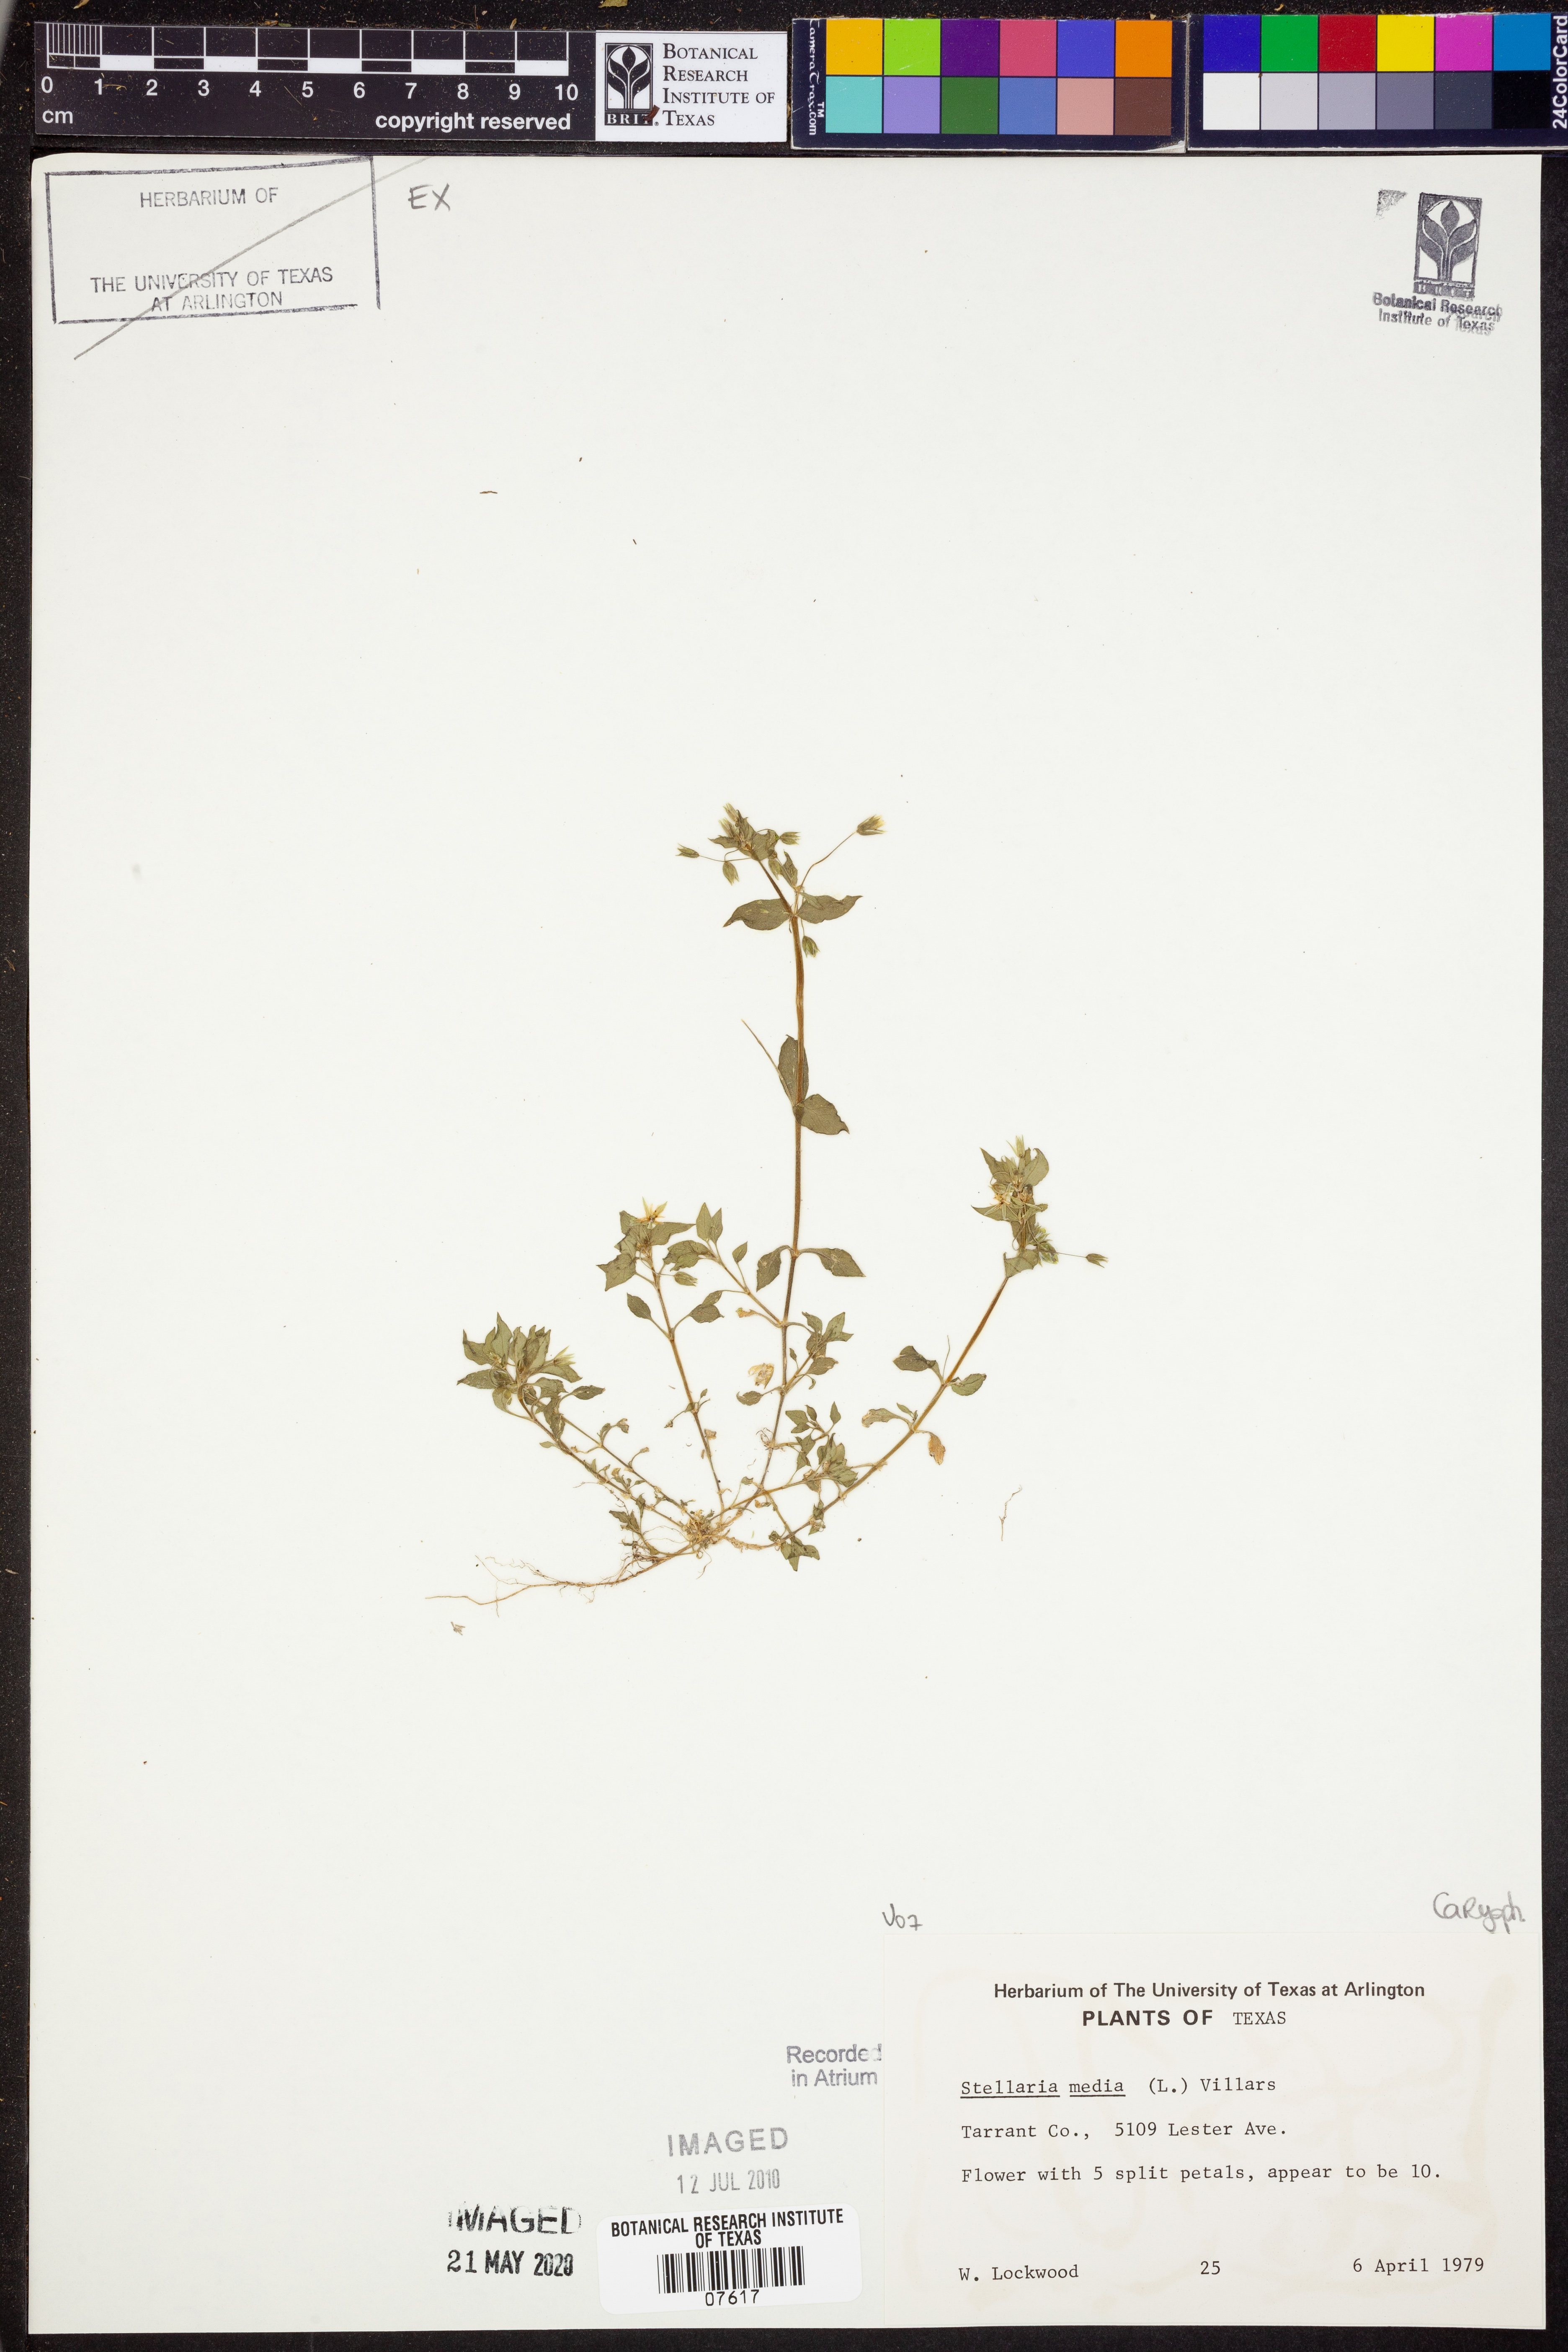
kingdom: Plantae
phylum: Tracheophyta
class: Magnoliopsida
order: Caryophyllales
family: Caryophyllaceae
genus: Stellaria
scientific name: Stellaria media
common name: Common chickweed
